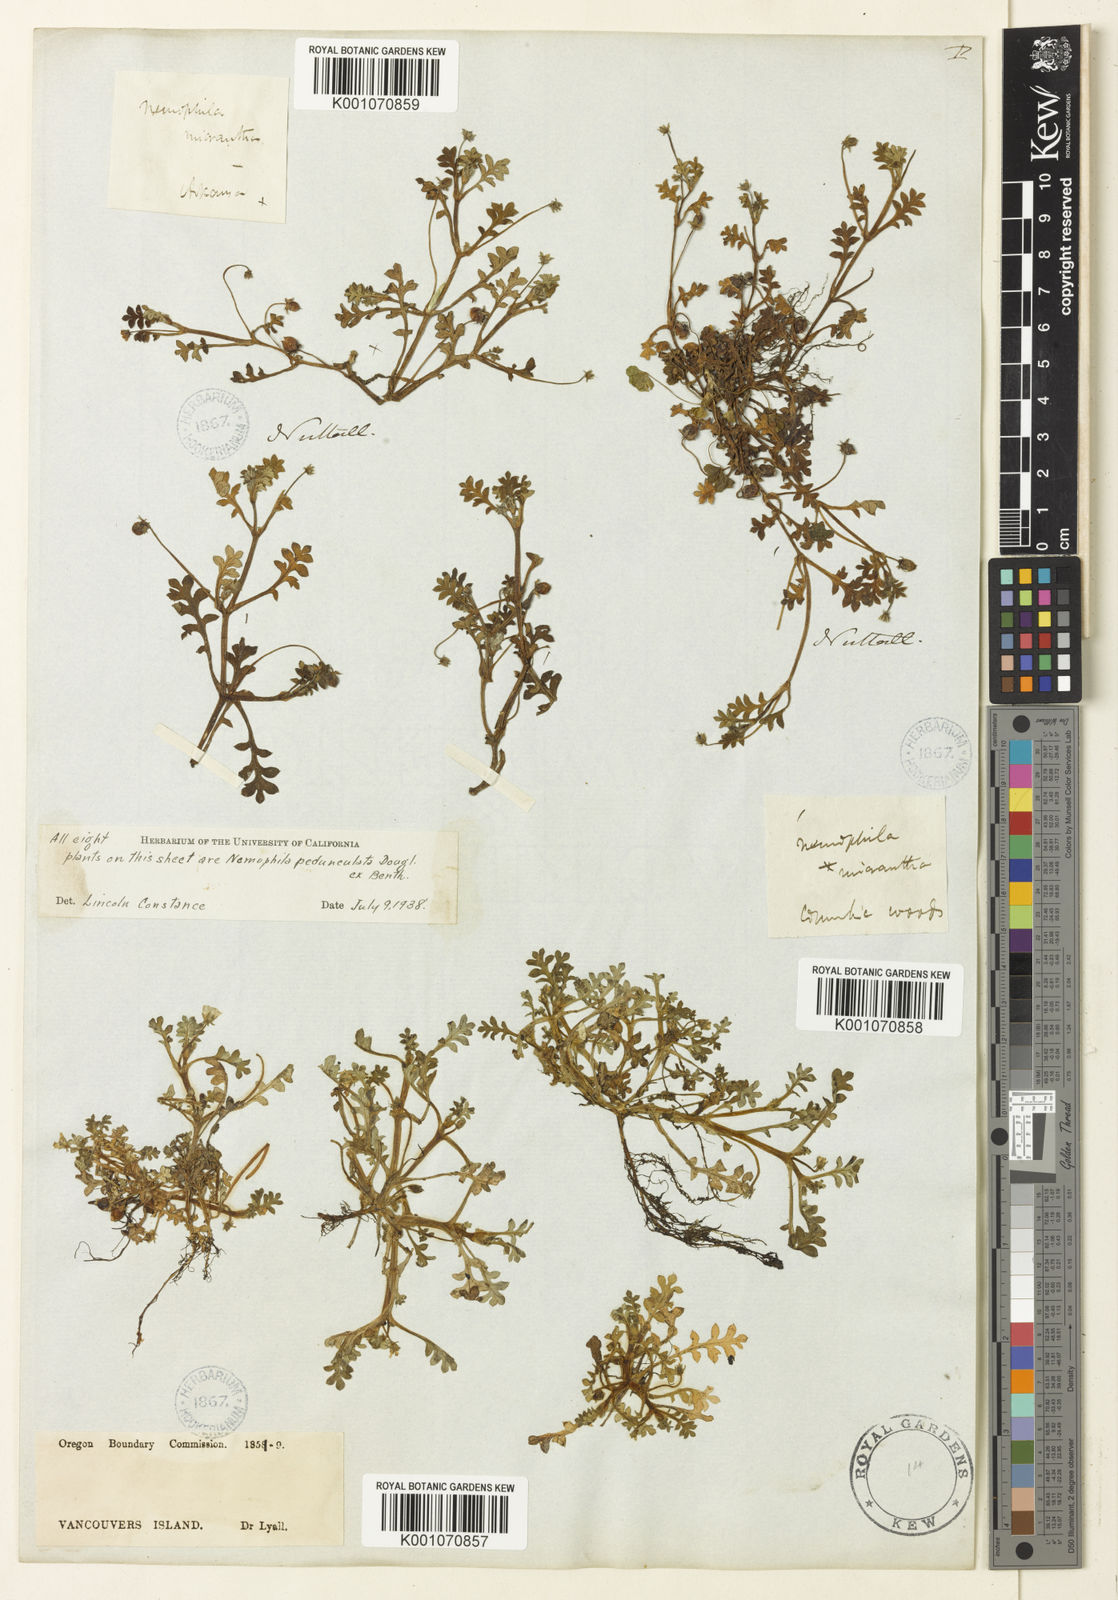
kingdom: Plantae
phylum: Tracheophyta
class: Magnoliopsida
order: Boraginales
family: Hydrophyllaceae
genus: Nemophila
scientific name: Nemophila
